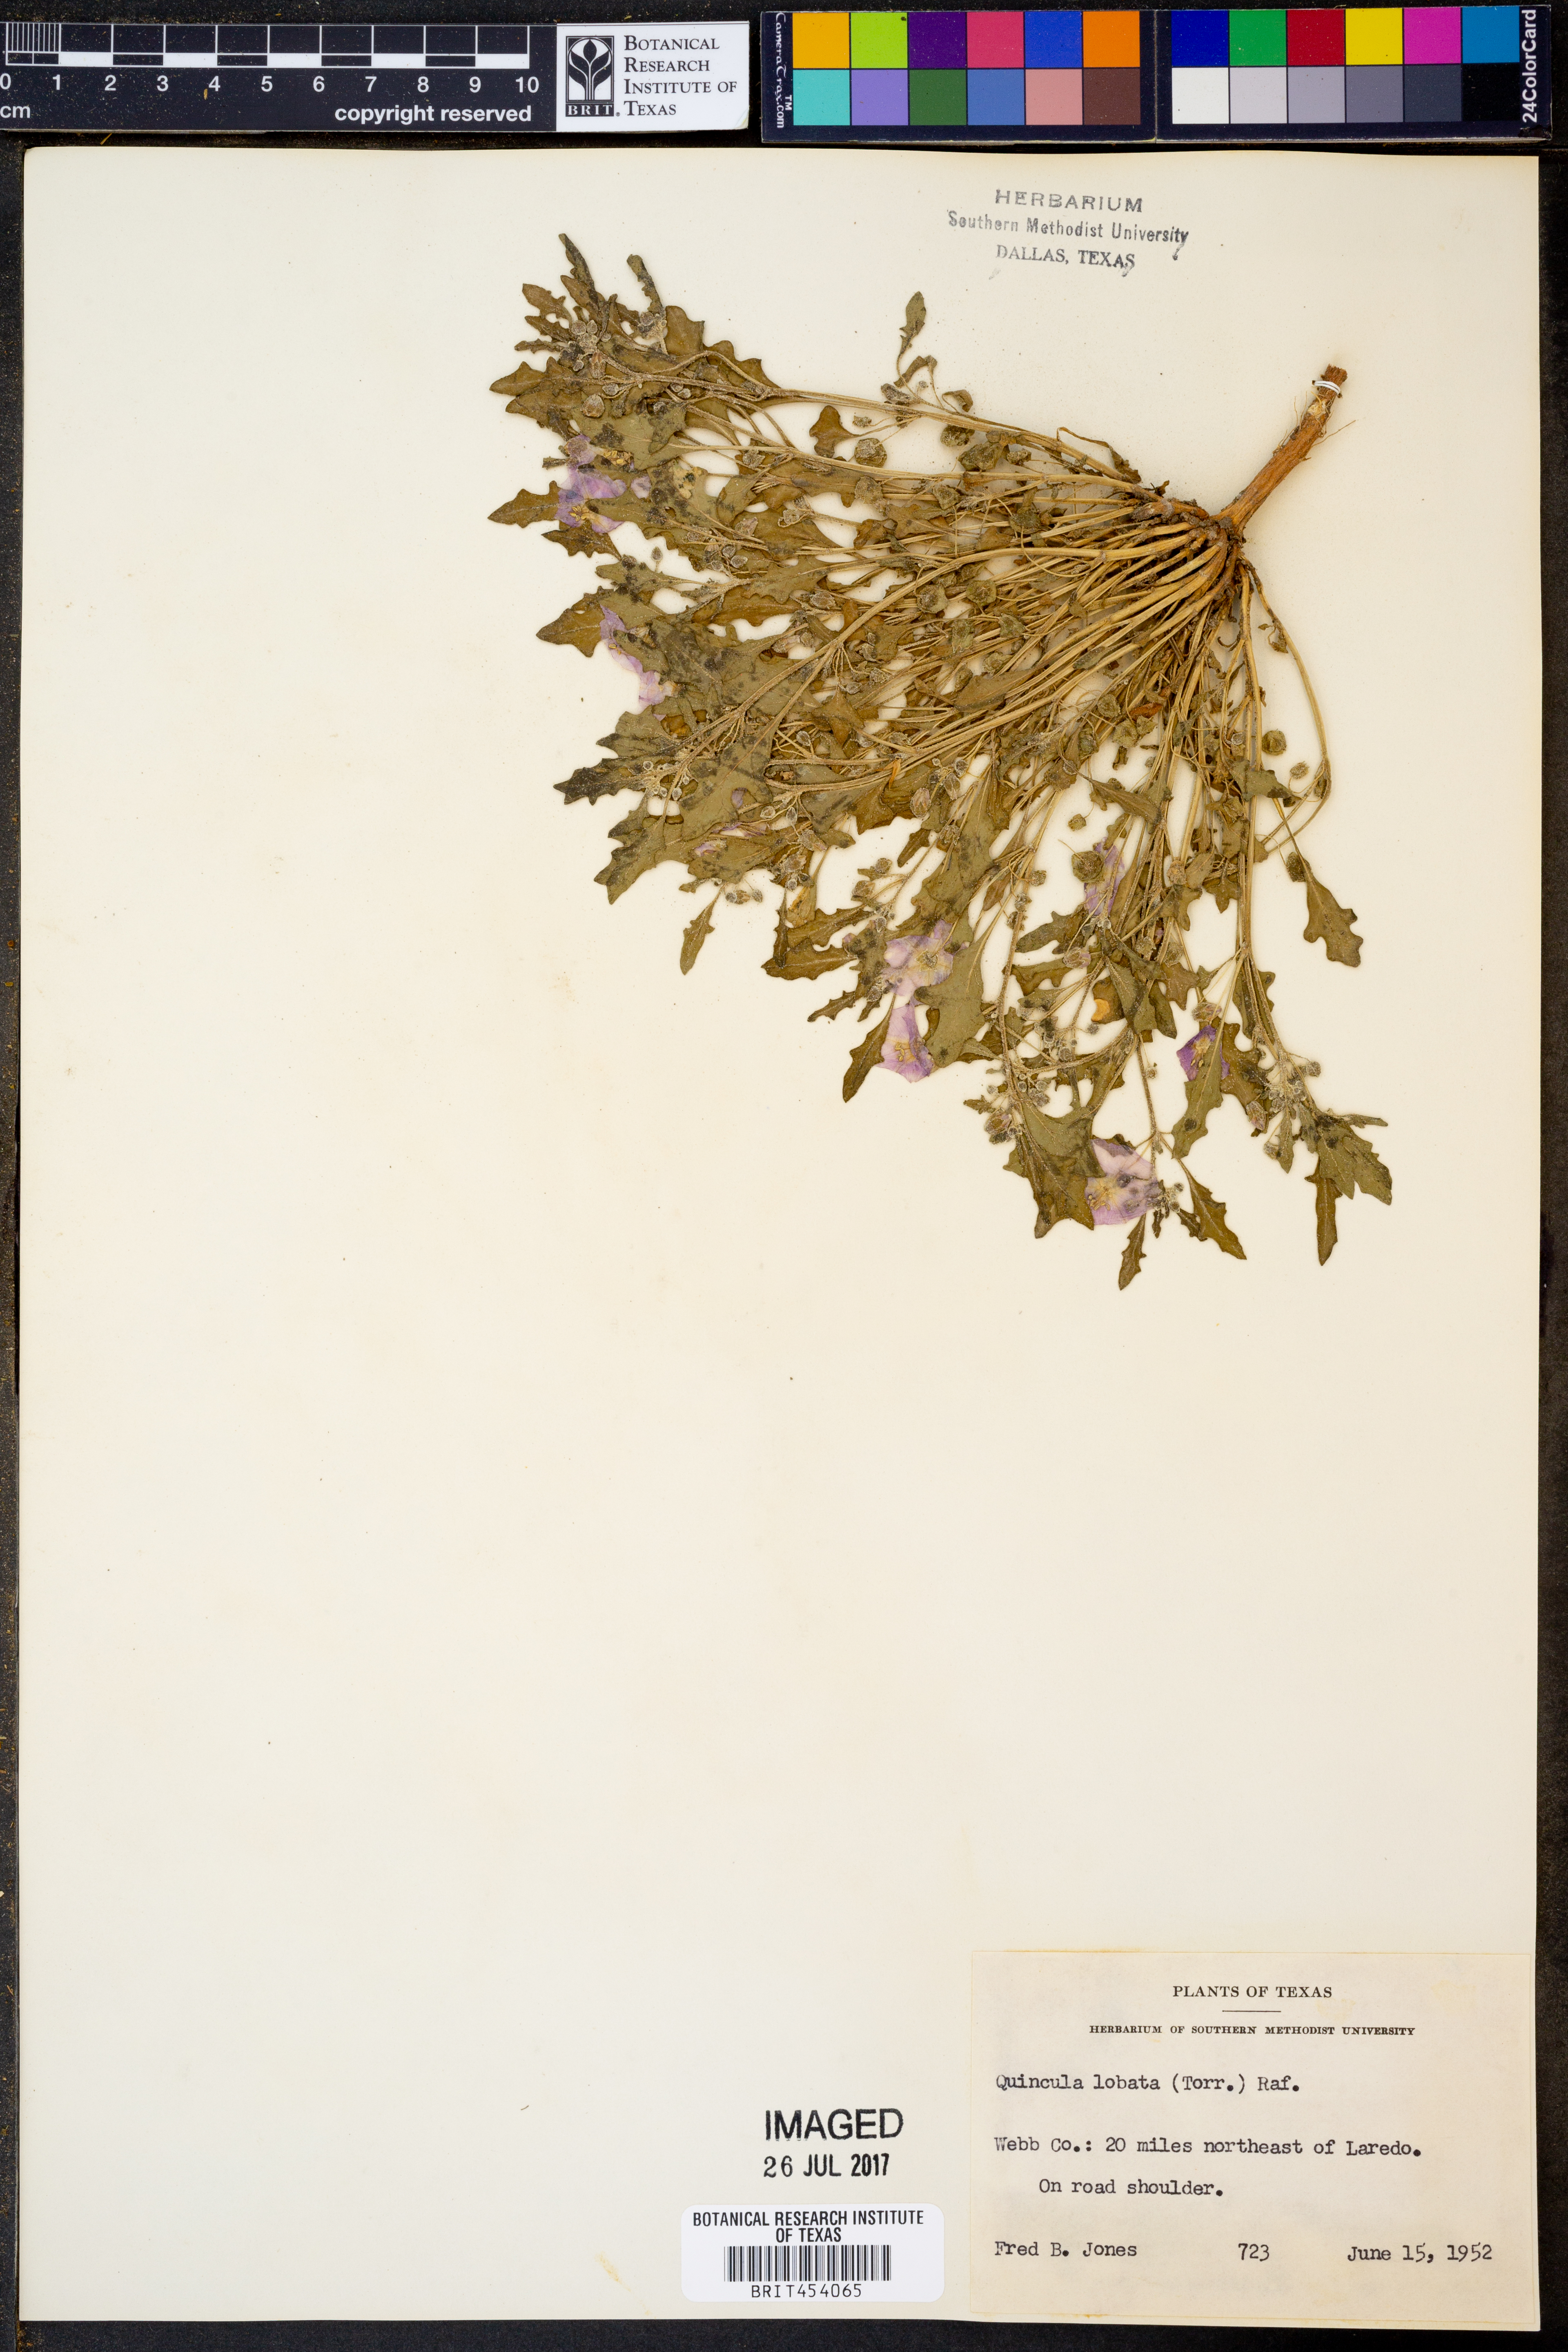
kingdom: Plantae
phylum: Tracheophyta
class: Magnoliopsida
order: Solanales
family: Solanaceae
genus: Quincula
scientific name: Quincula lobata
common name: Purple-ground-cherry
